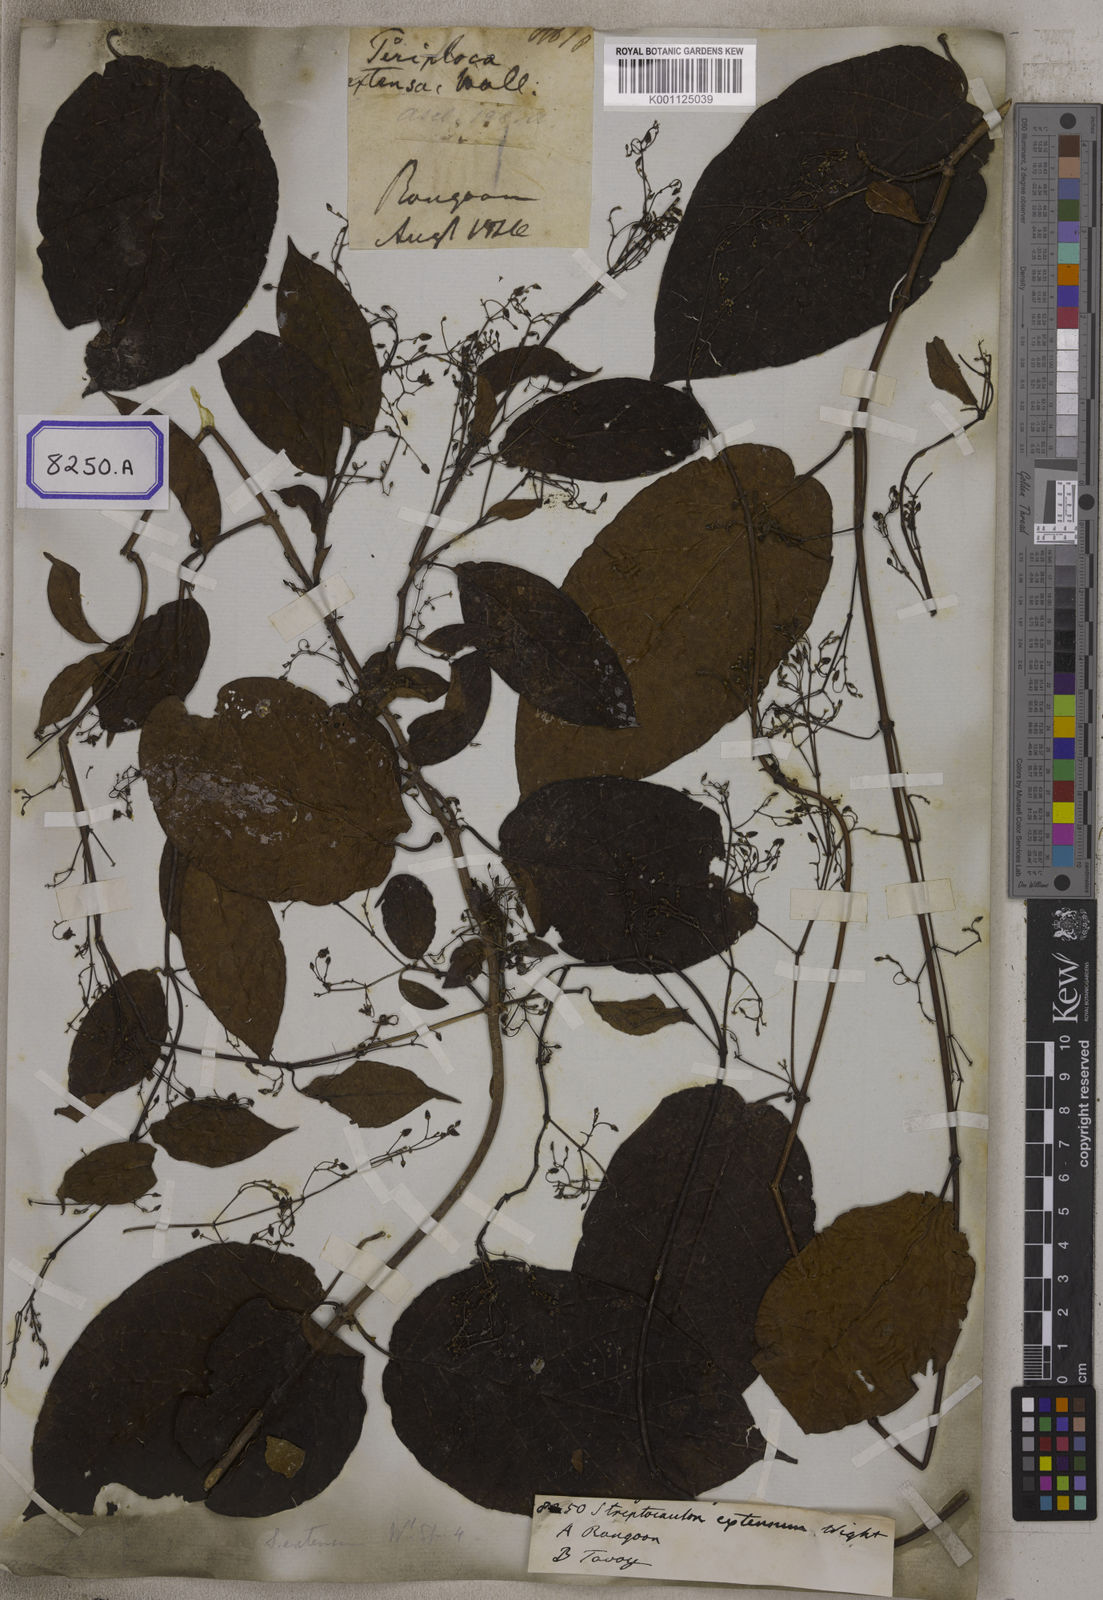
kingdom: Plantae
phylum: Tracheophyta
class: Magnoliopsida
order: Gentianales
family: Apocynaceae
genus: Myriopteron
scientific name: Myriopteron extensum
